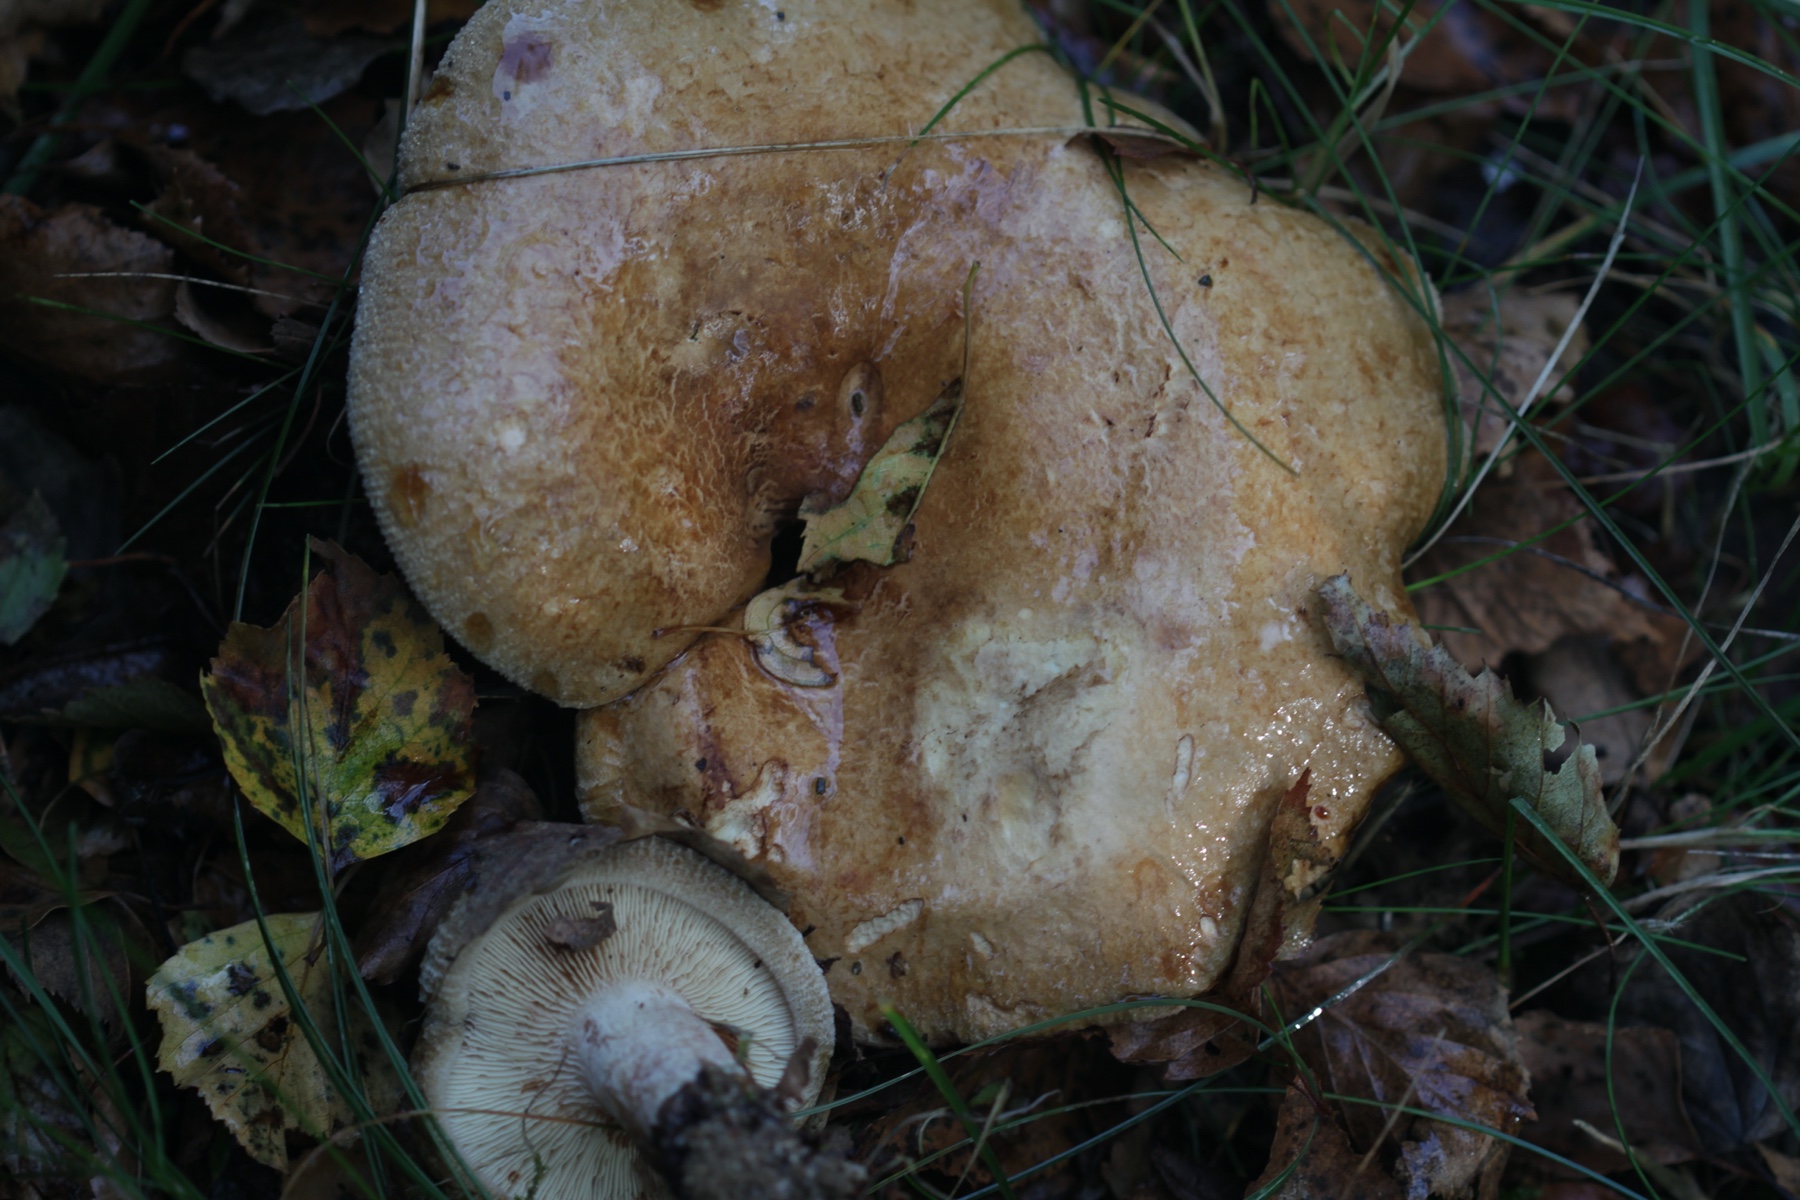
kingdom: Fungi
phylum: Basidiomycota
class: Agaricomycetes
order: Boletales
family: Paxillaceae
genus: Paxillus
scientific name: Paxillus involutus
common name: almindelig netbladhat
